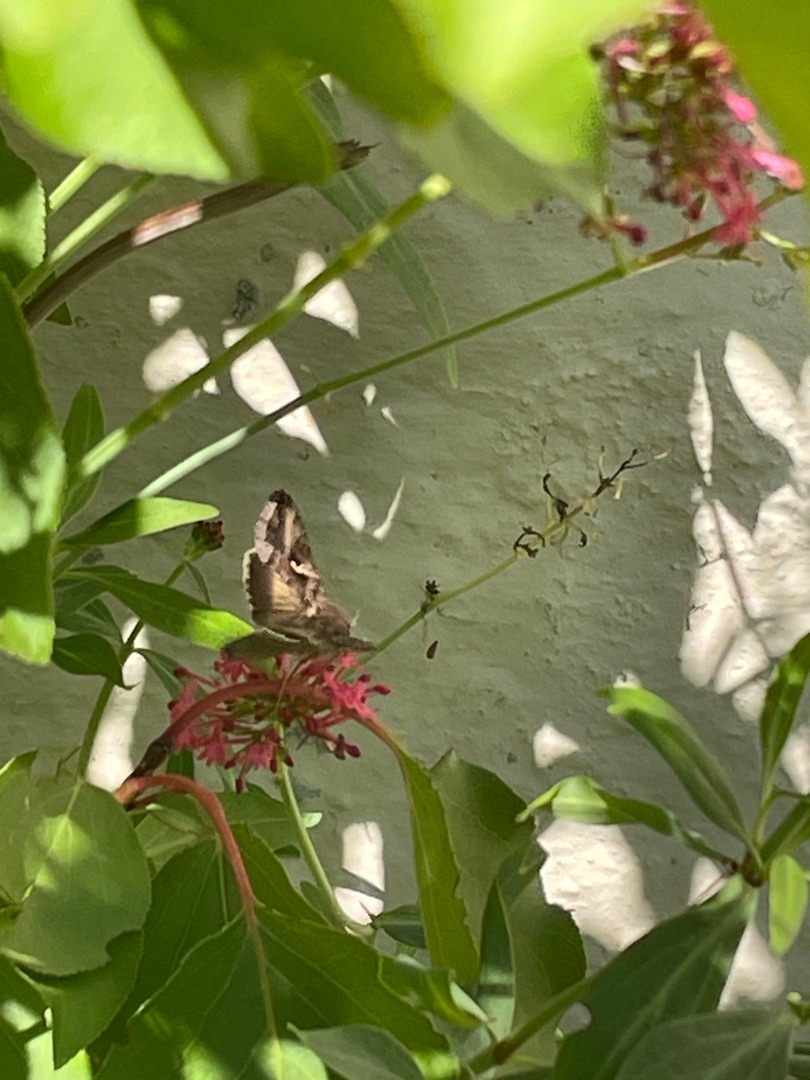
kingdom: Animalia
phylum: Arthropoda
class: Insecta
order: Lepidoptera
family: Noctuidae
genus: Autographa
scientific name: Autographa gamma
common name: Gammaugle
